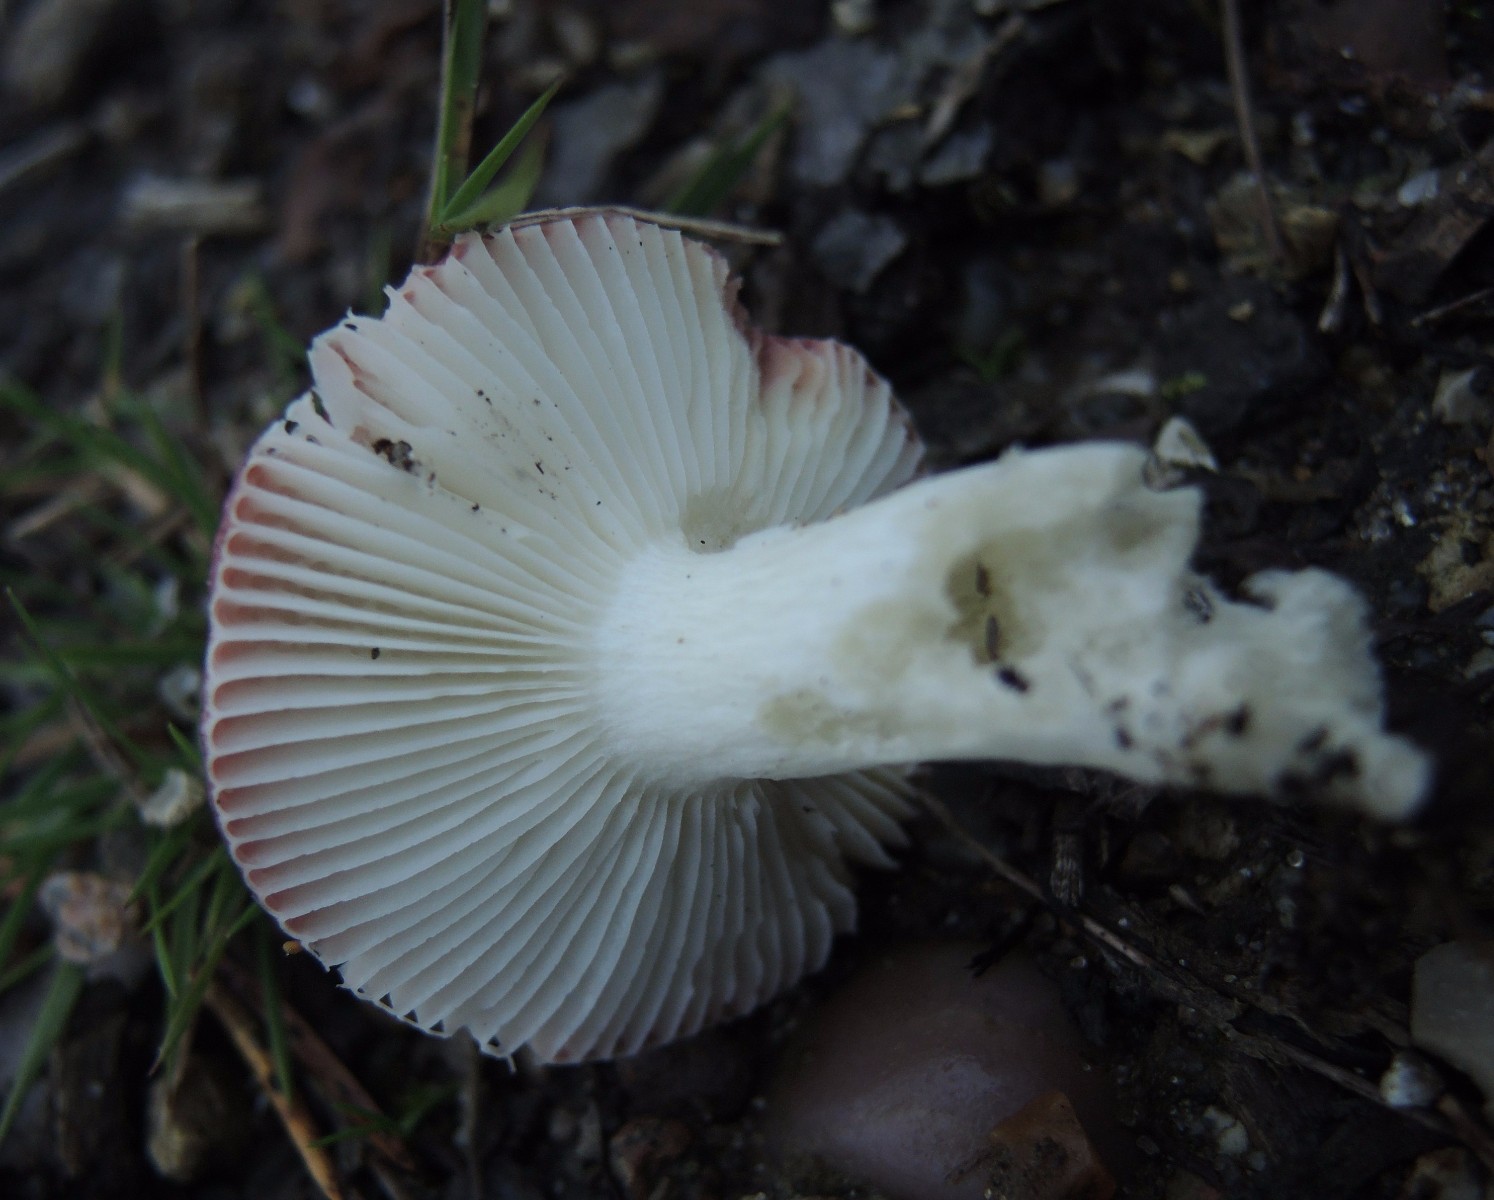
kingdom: Fungi
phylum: Basidiomycota
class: Agaricomycetes
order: Russulales
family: Russulaceae
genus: Russula
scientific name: Russula laccata
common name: klit-skørhat
